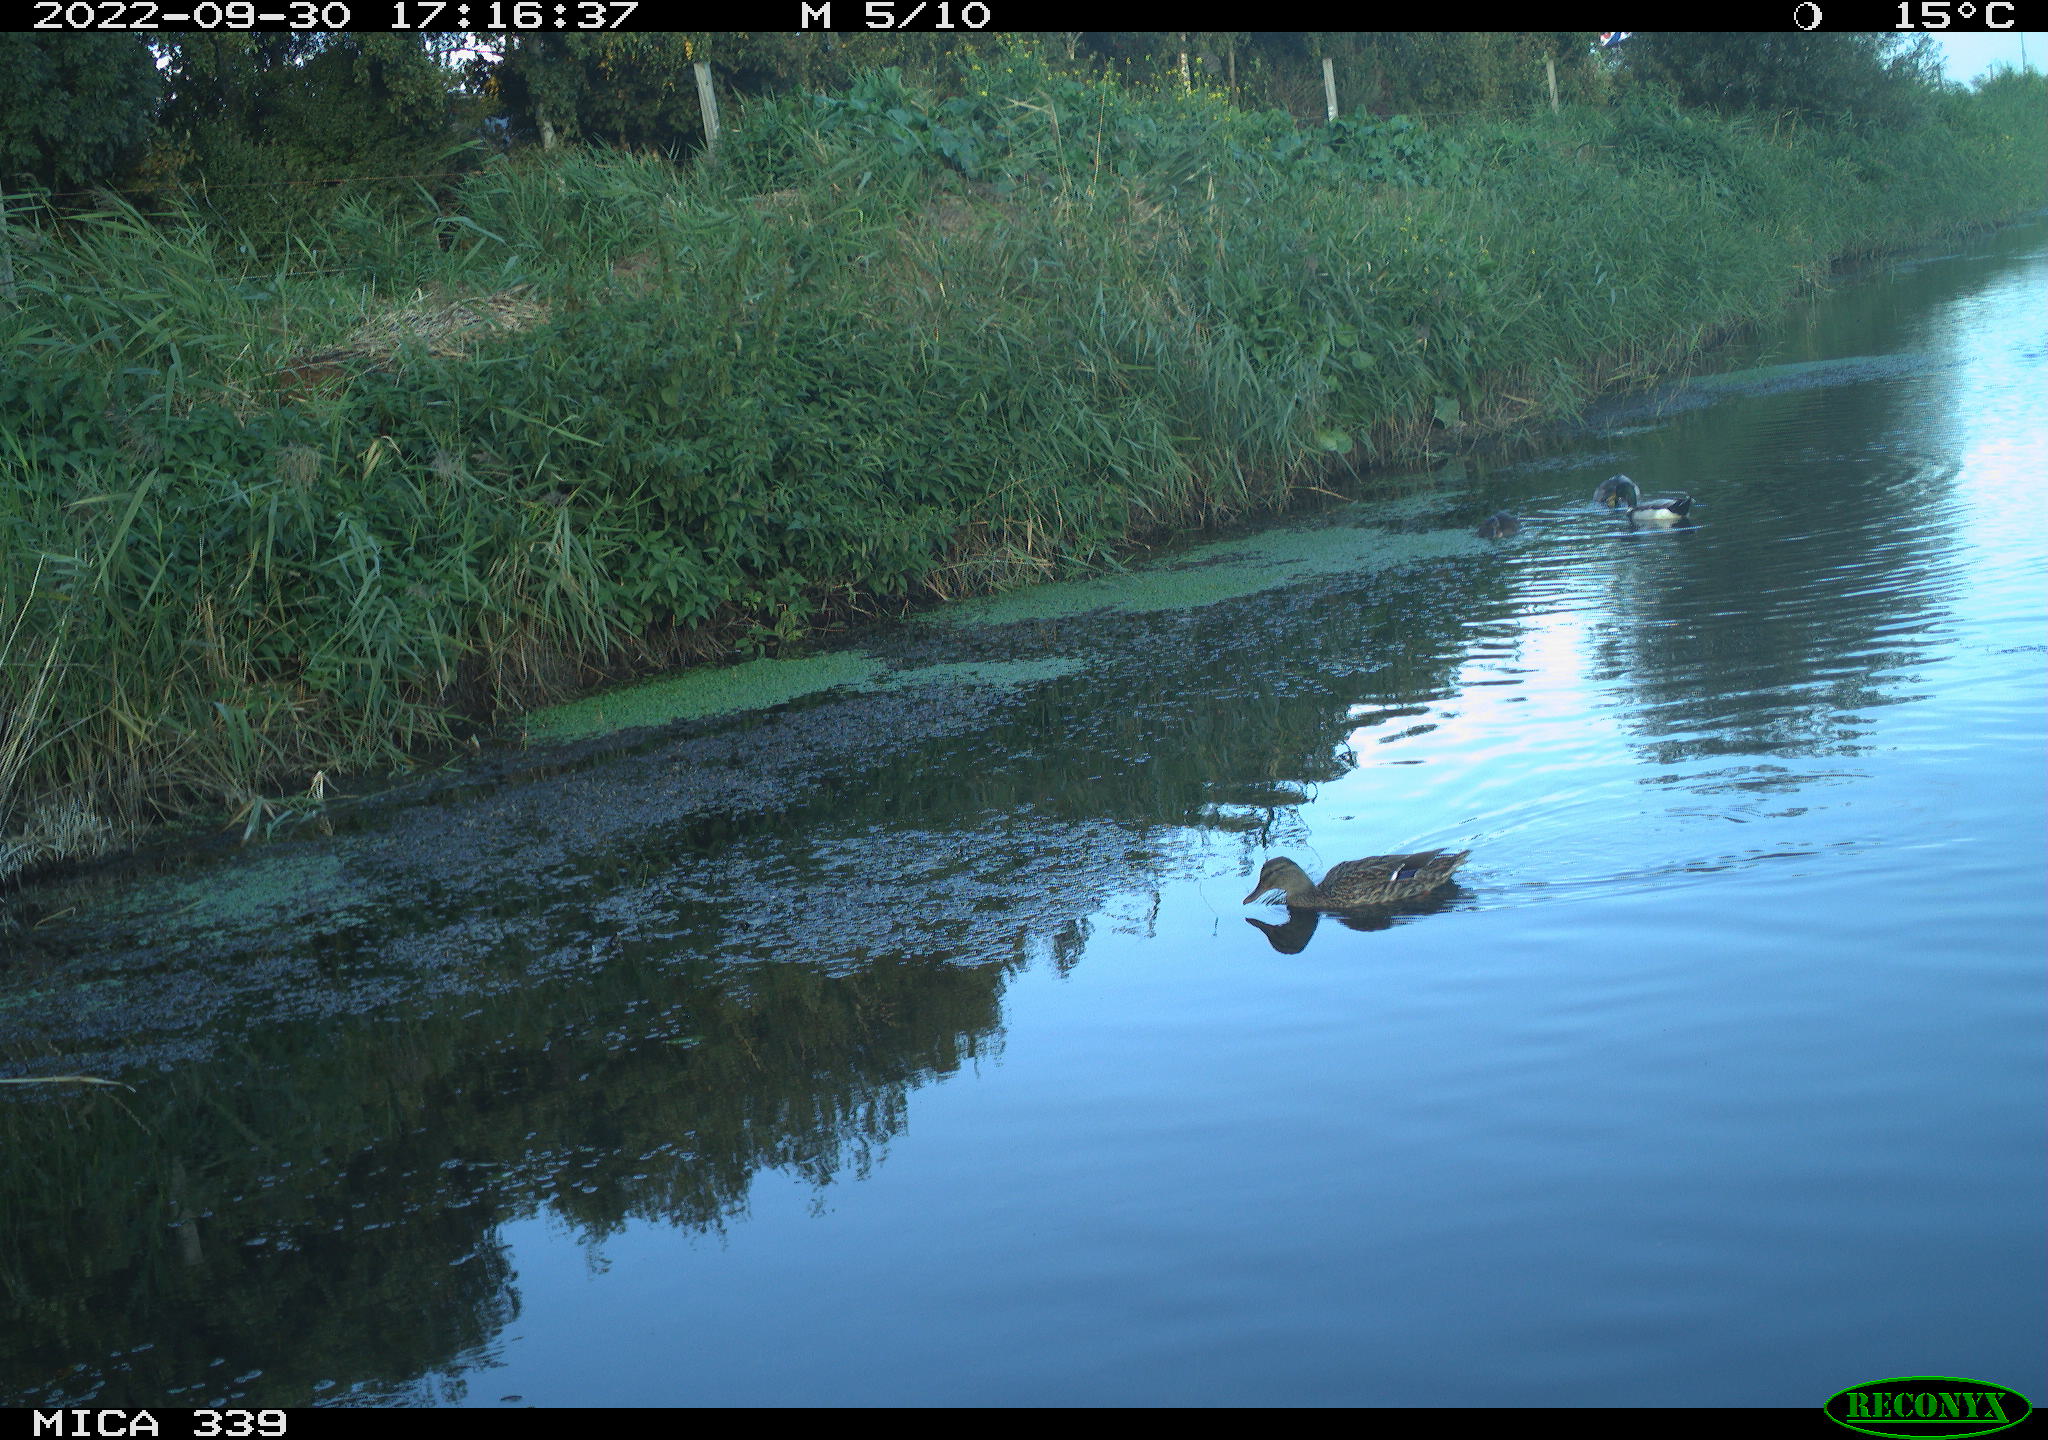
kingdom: Animalia
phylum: Chordata
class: Aves
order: Anseriformes
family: Anatidae
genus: Anas
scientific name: Anas platyrhynchos
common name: Mallard
